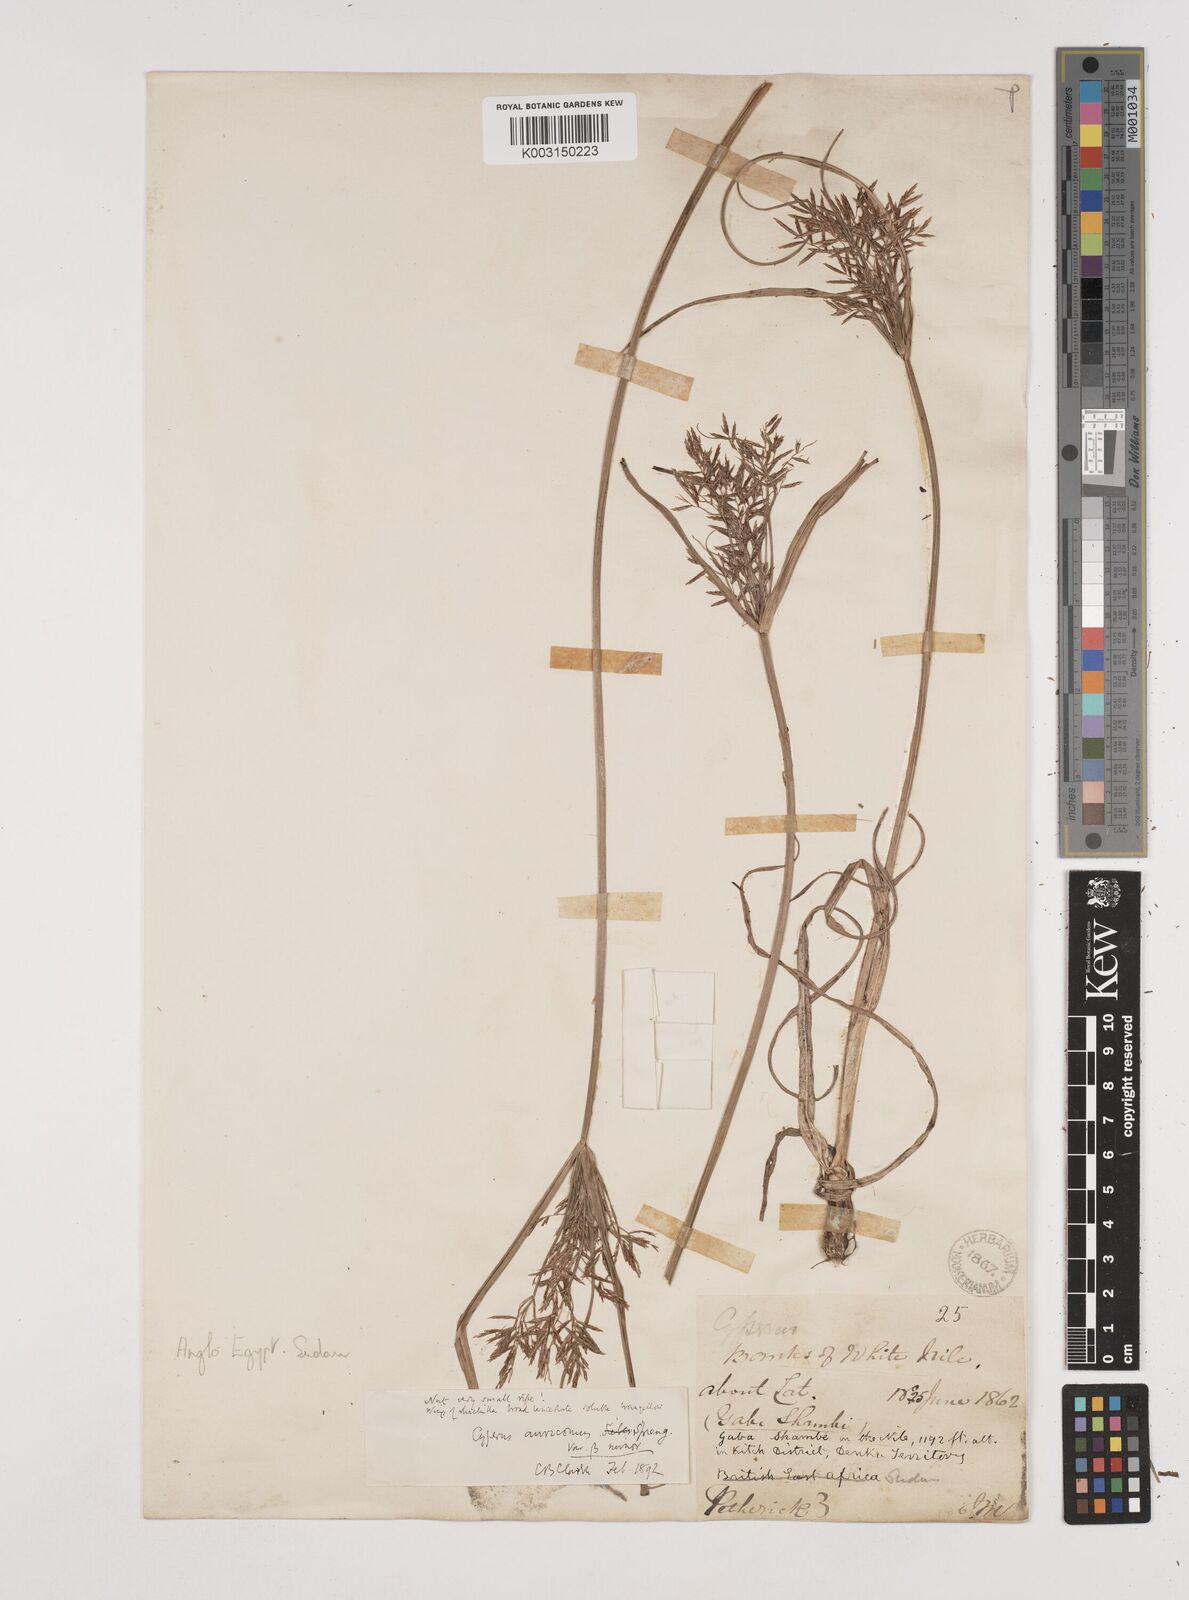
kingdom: Plantae
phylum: Tracheophyta
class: Liliopsida
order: Poales
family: Cyperaceae
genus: Cyperus
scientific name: Cyperus penzoanus
